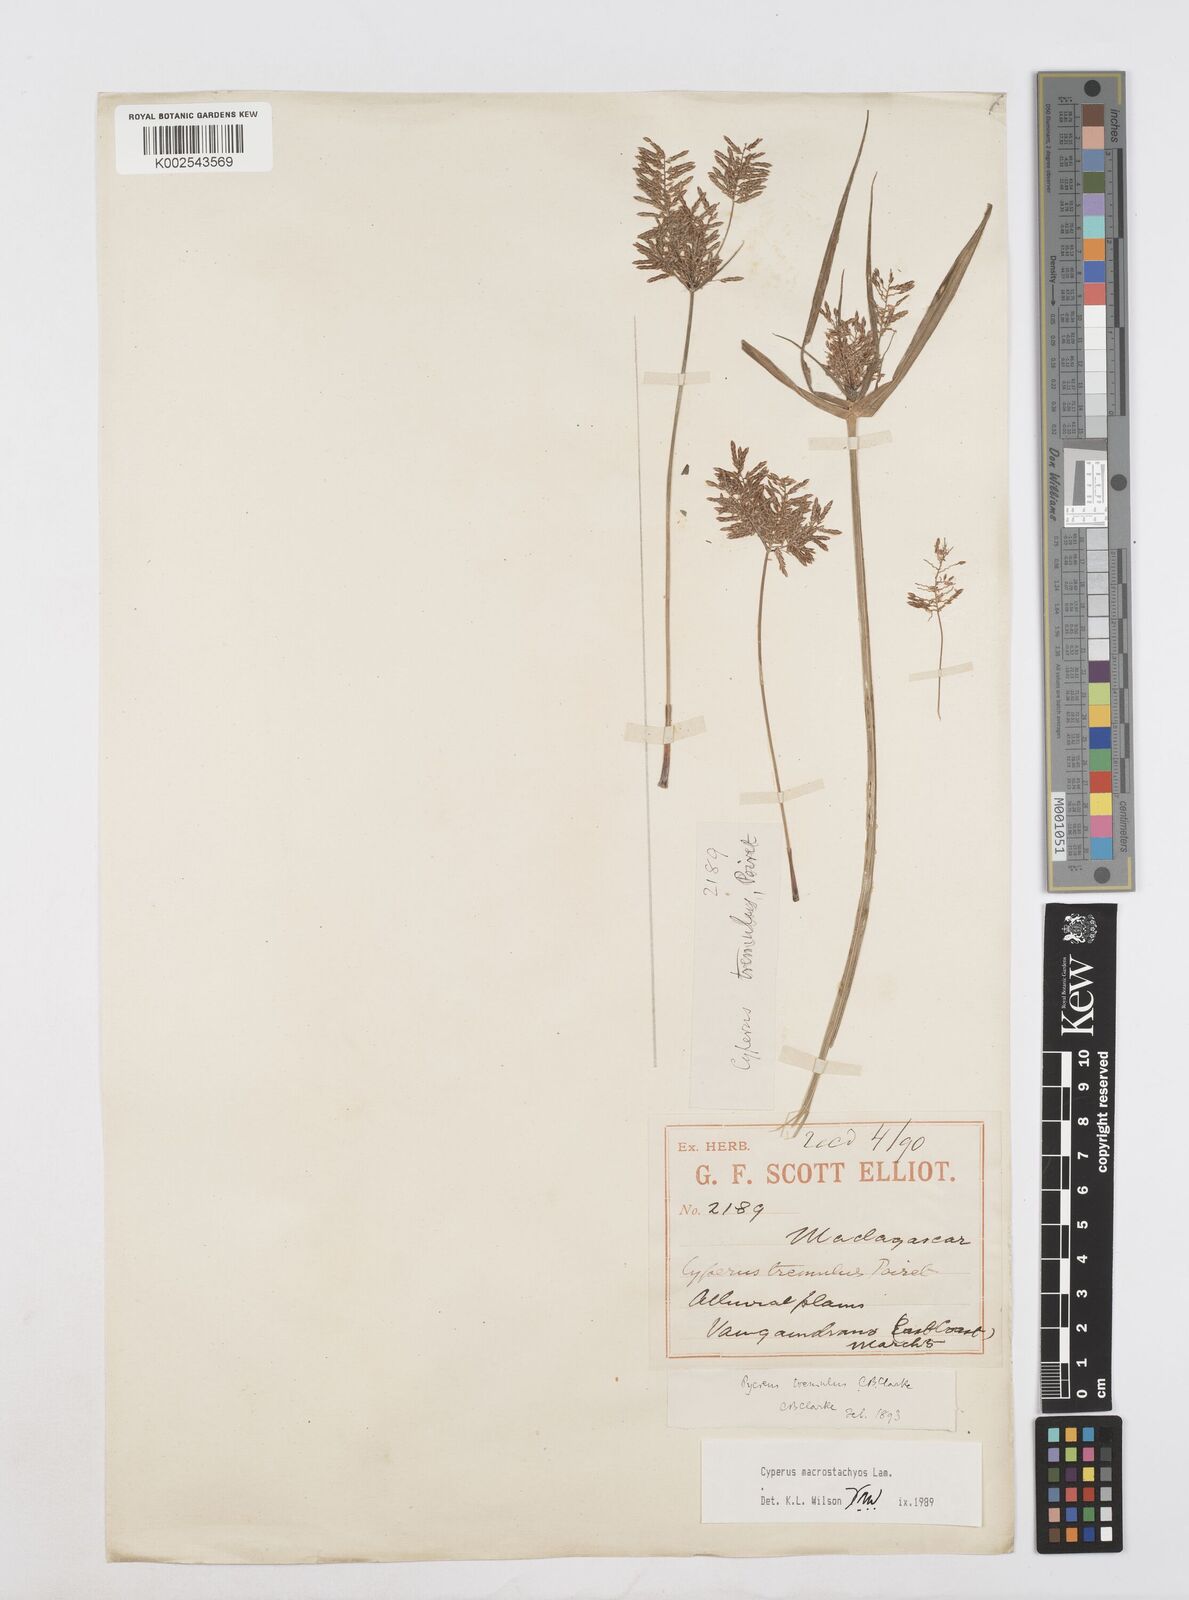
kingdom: Plantae
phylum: Tracheophyta
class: Liliopsida
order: Poales
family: Cyperaceae
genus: Cyperus
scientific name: Cyperus macrostachyos
